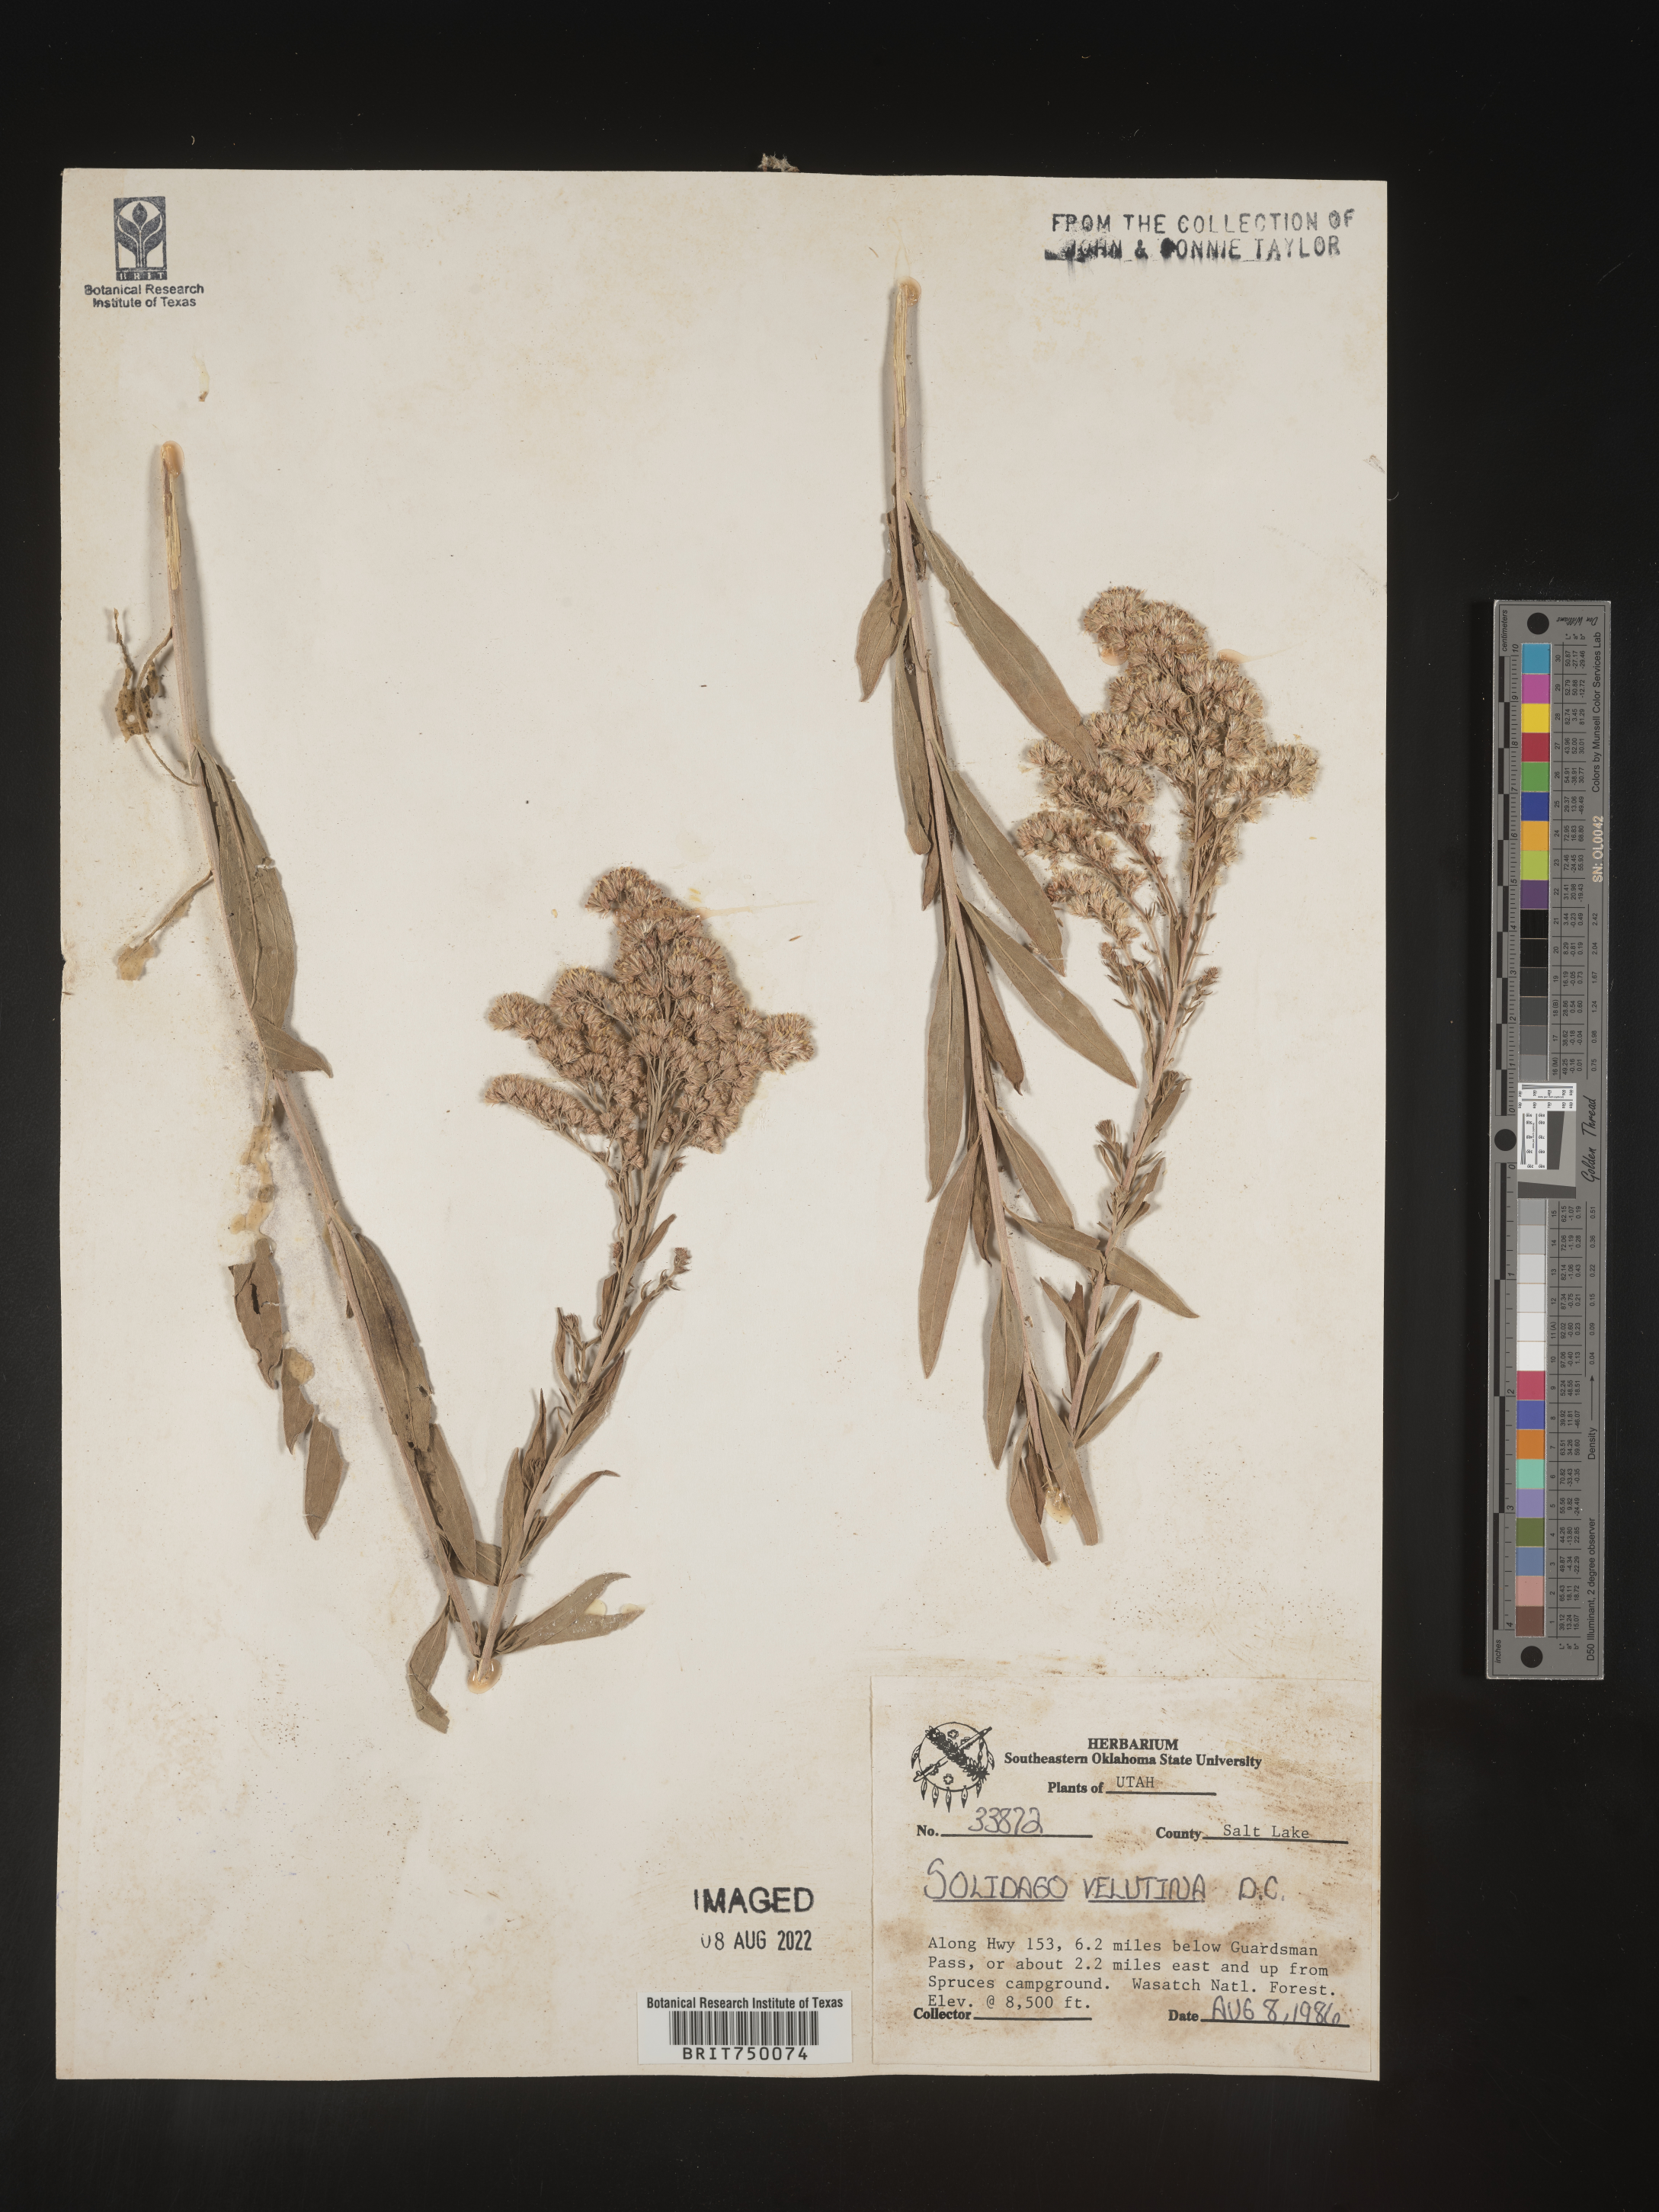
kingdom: Plantae
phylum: Tracheophyta
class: Magnoliopsida
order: Asterales
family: Asteraceae
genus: Solidago
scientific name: Solidago velutina
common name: Three-nerve goldenrod
